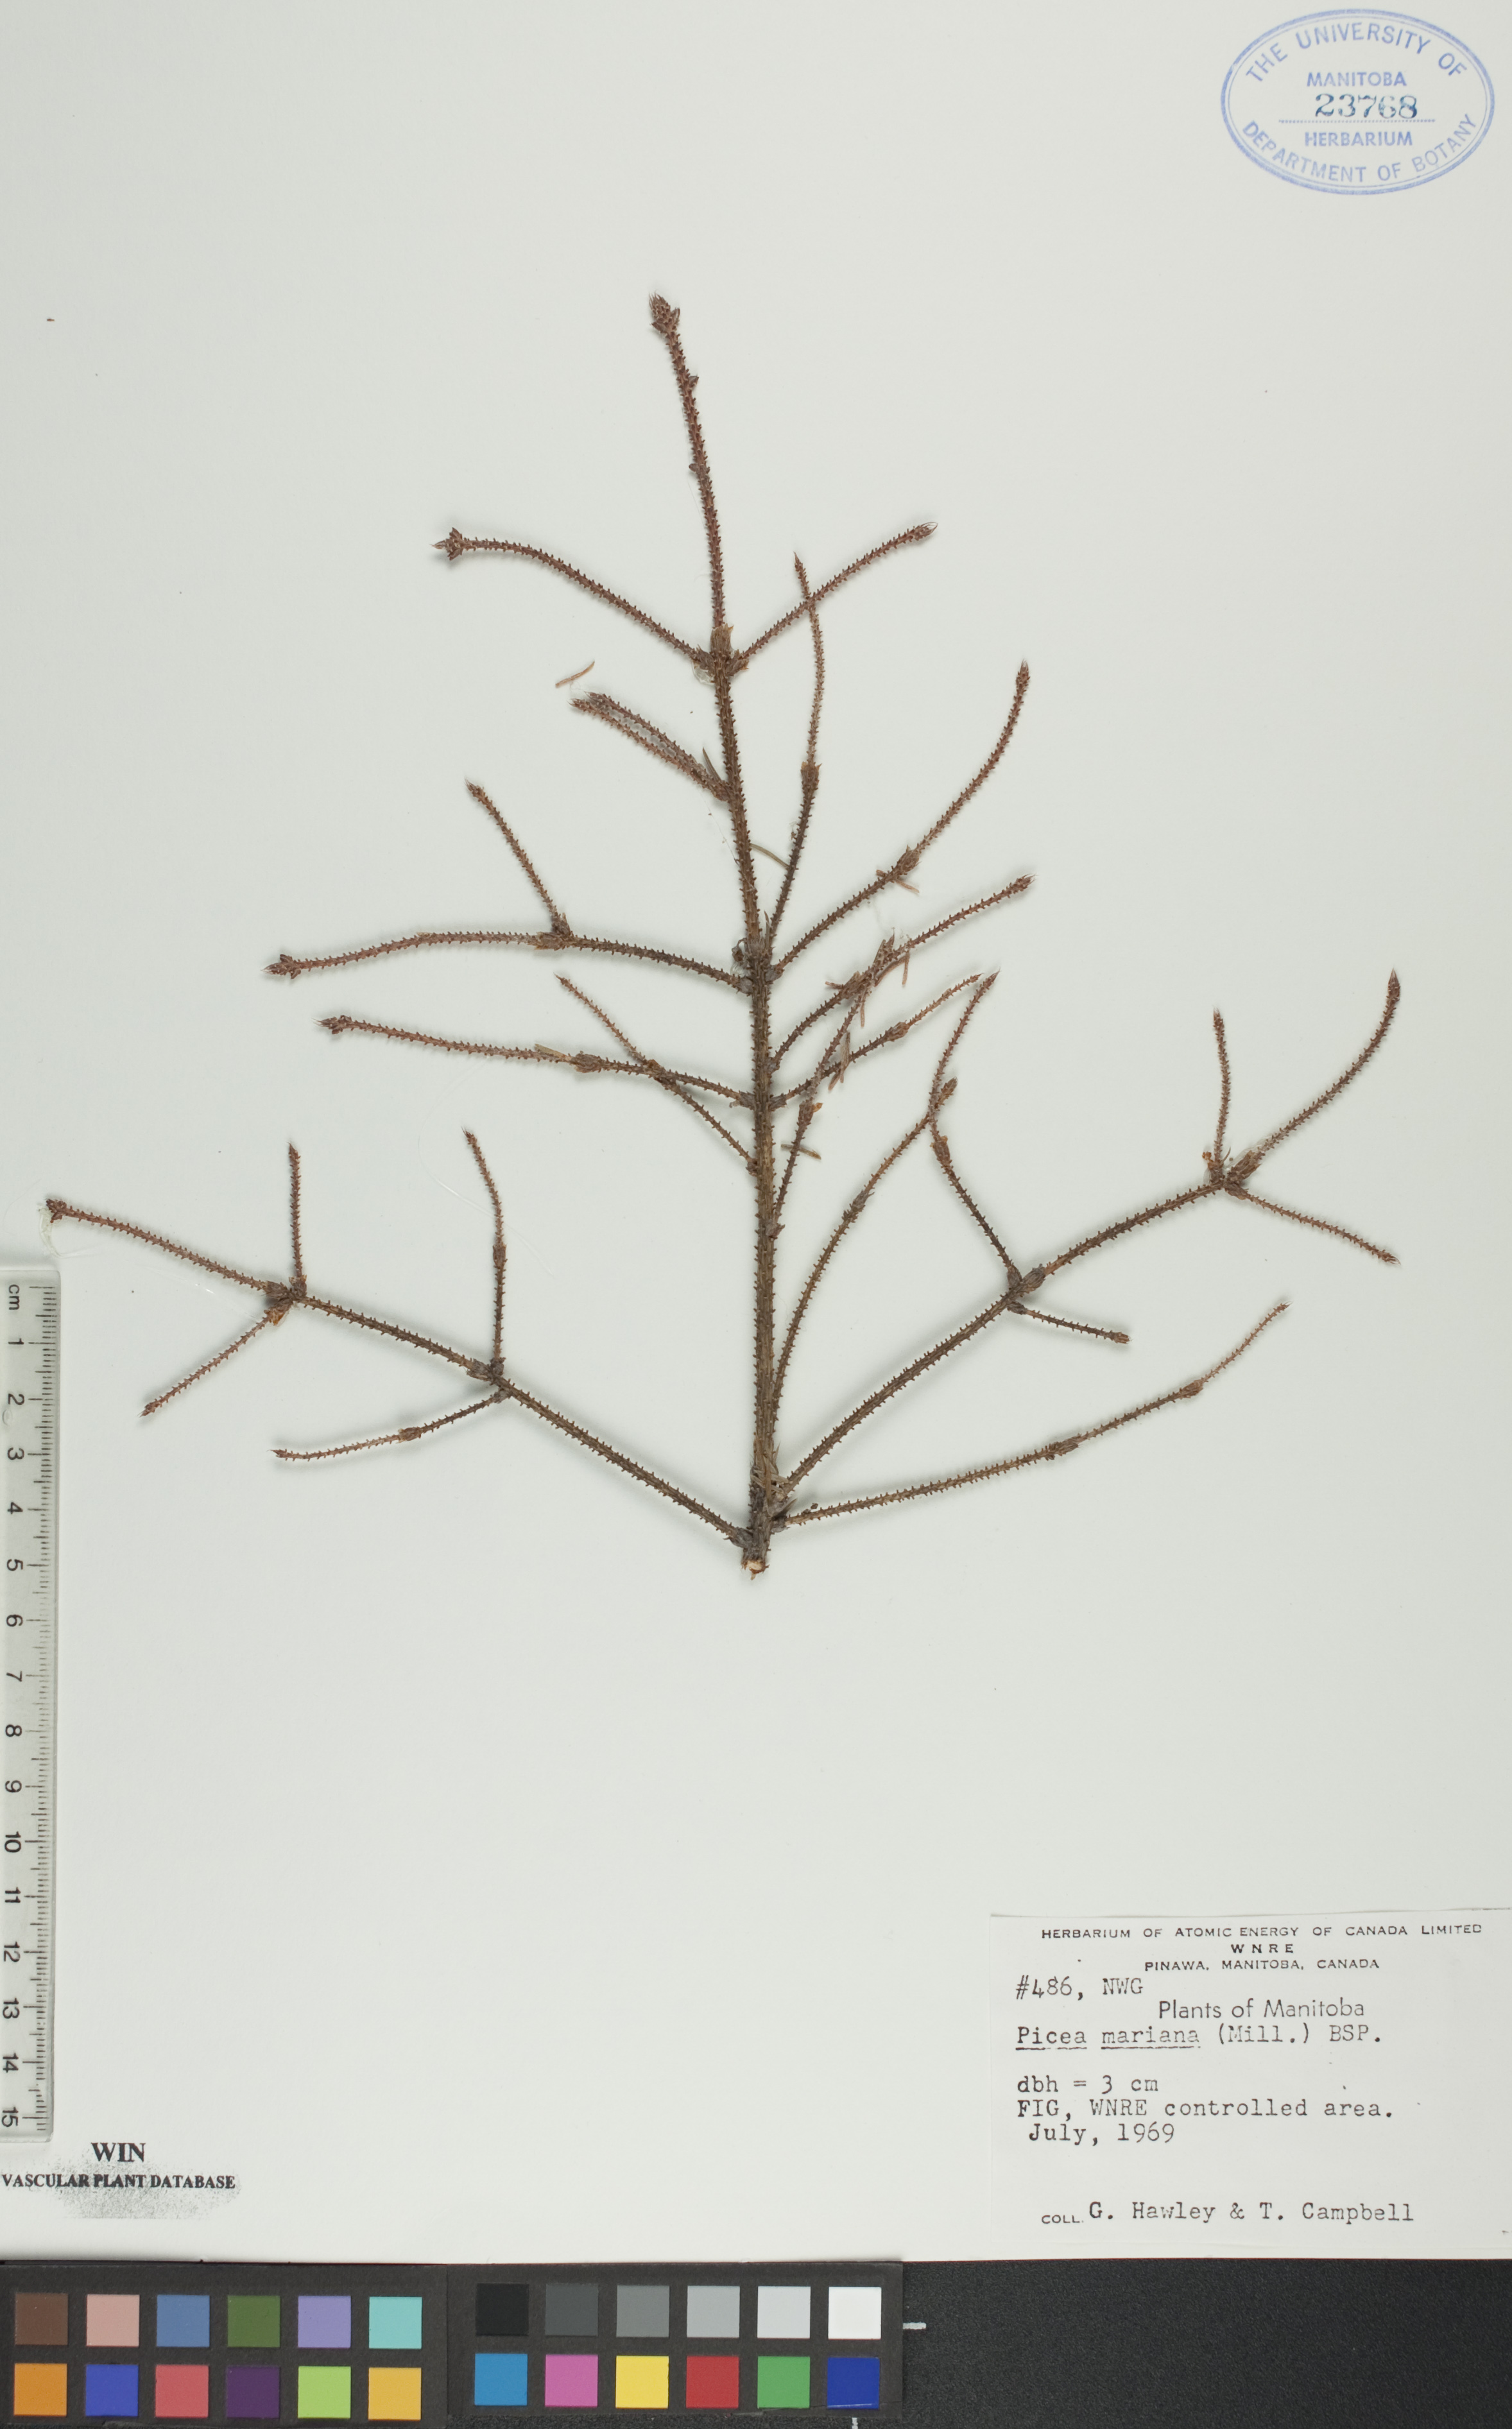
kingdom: Plantae
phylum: Tracheophyta
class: Pinopsida
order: Pinales
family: Pinaceae
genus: Picea
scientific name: Picea mariana
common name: Black spruce
